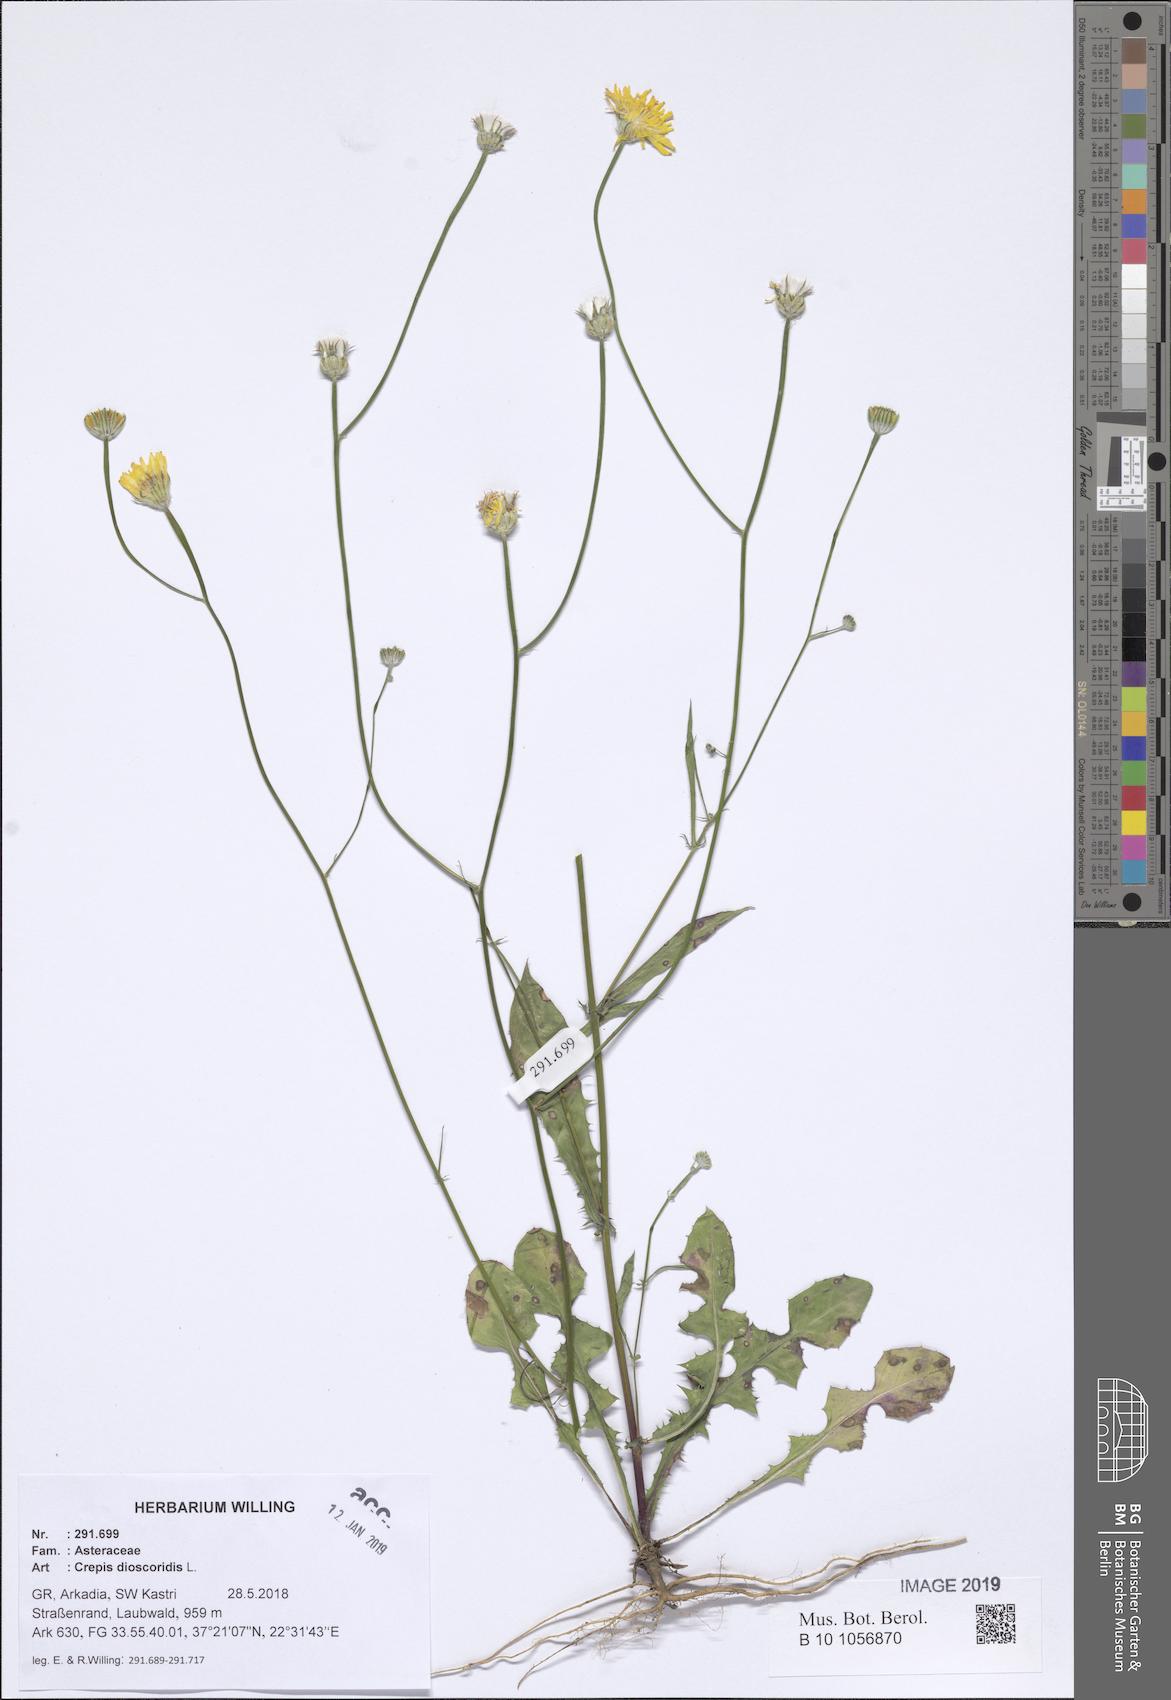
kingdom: Plantae
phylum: Tracheophyta
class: Magnoliopsida
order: Asterales
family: Asteraceae
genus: Crepis
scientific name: Crepis dioscoridis
